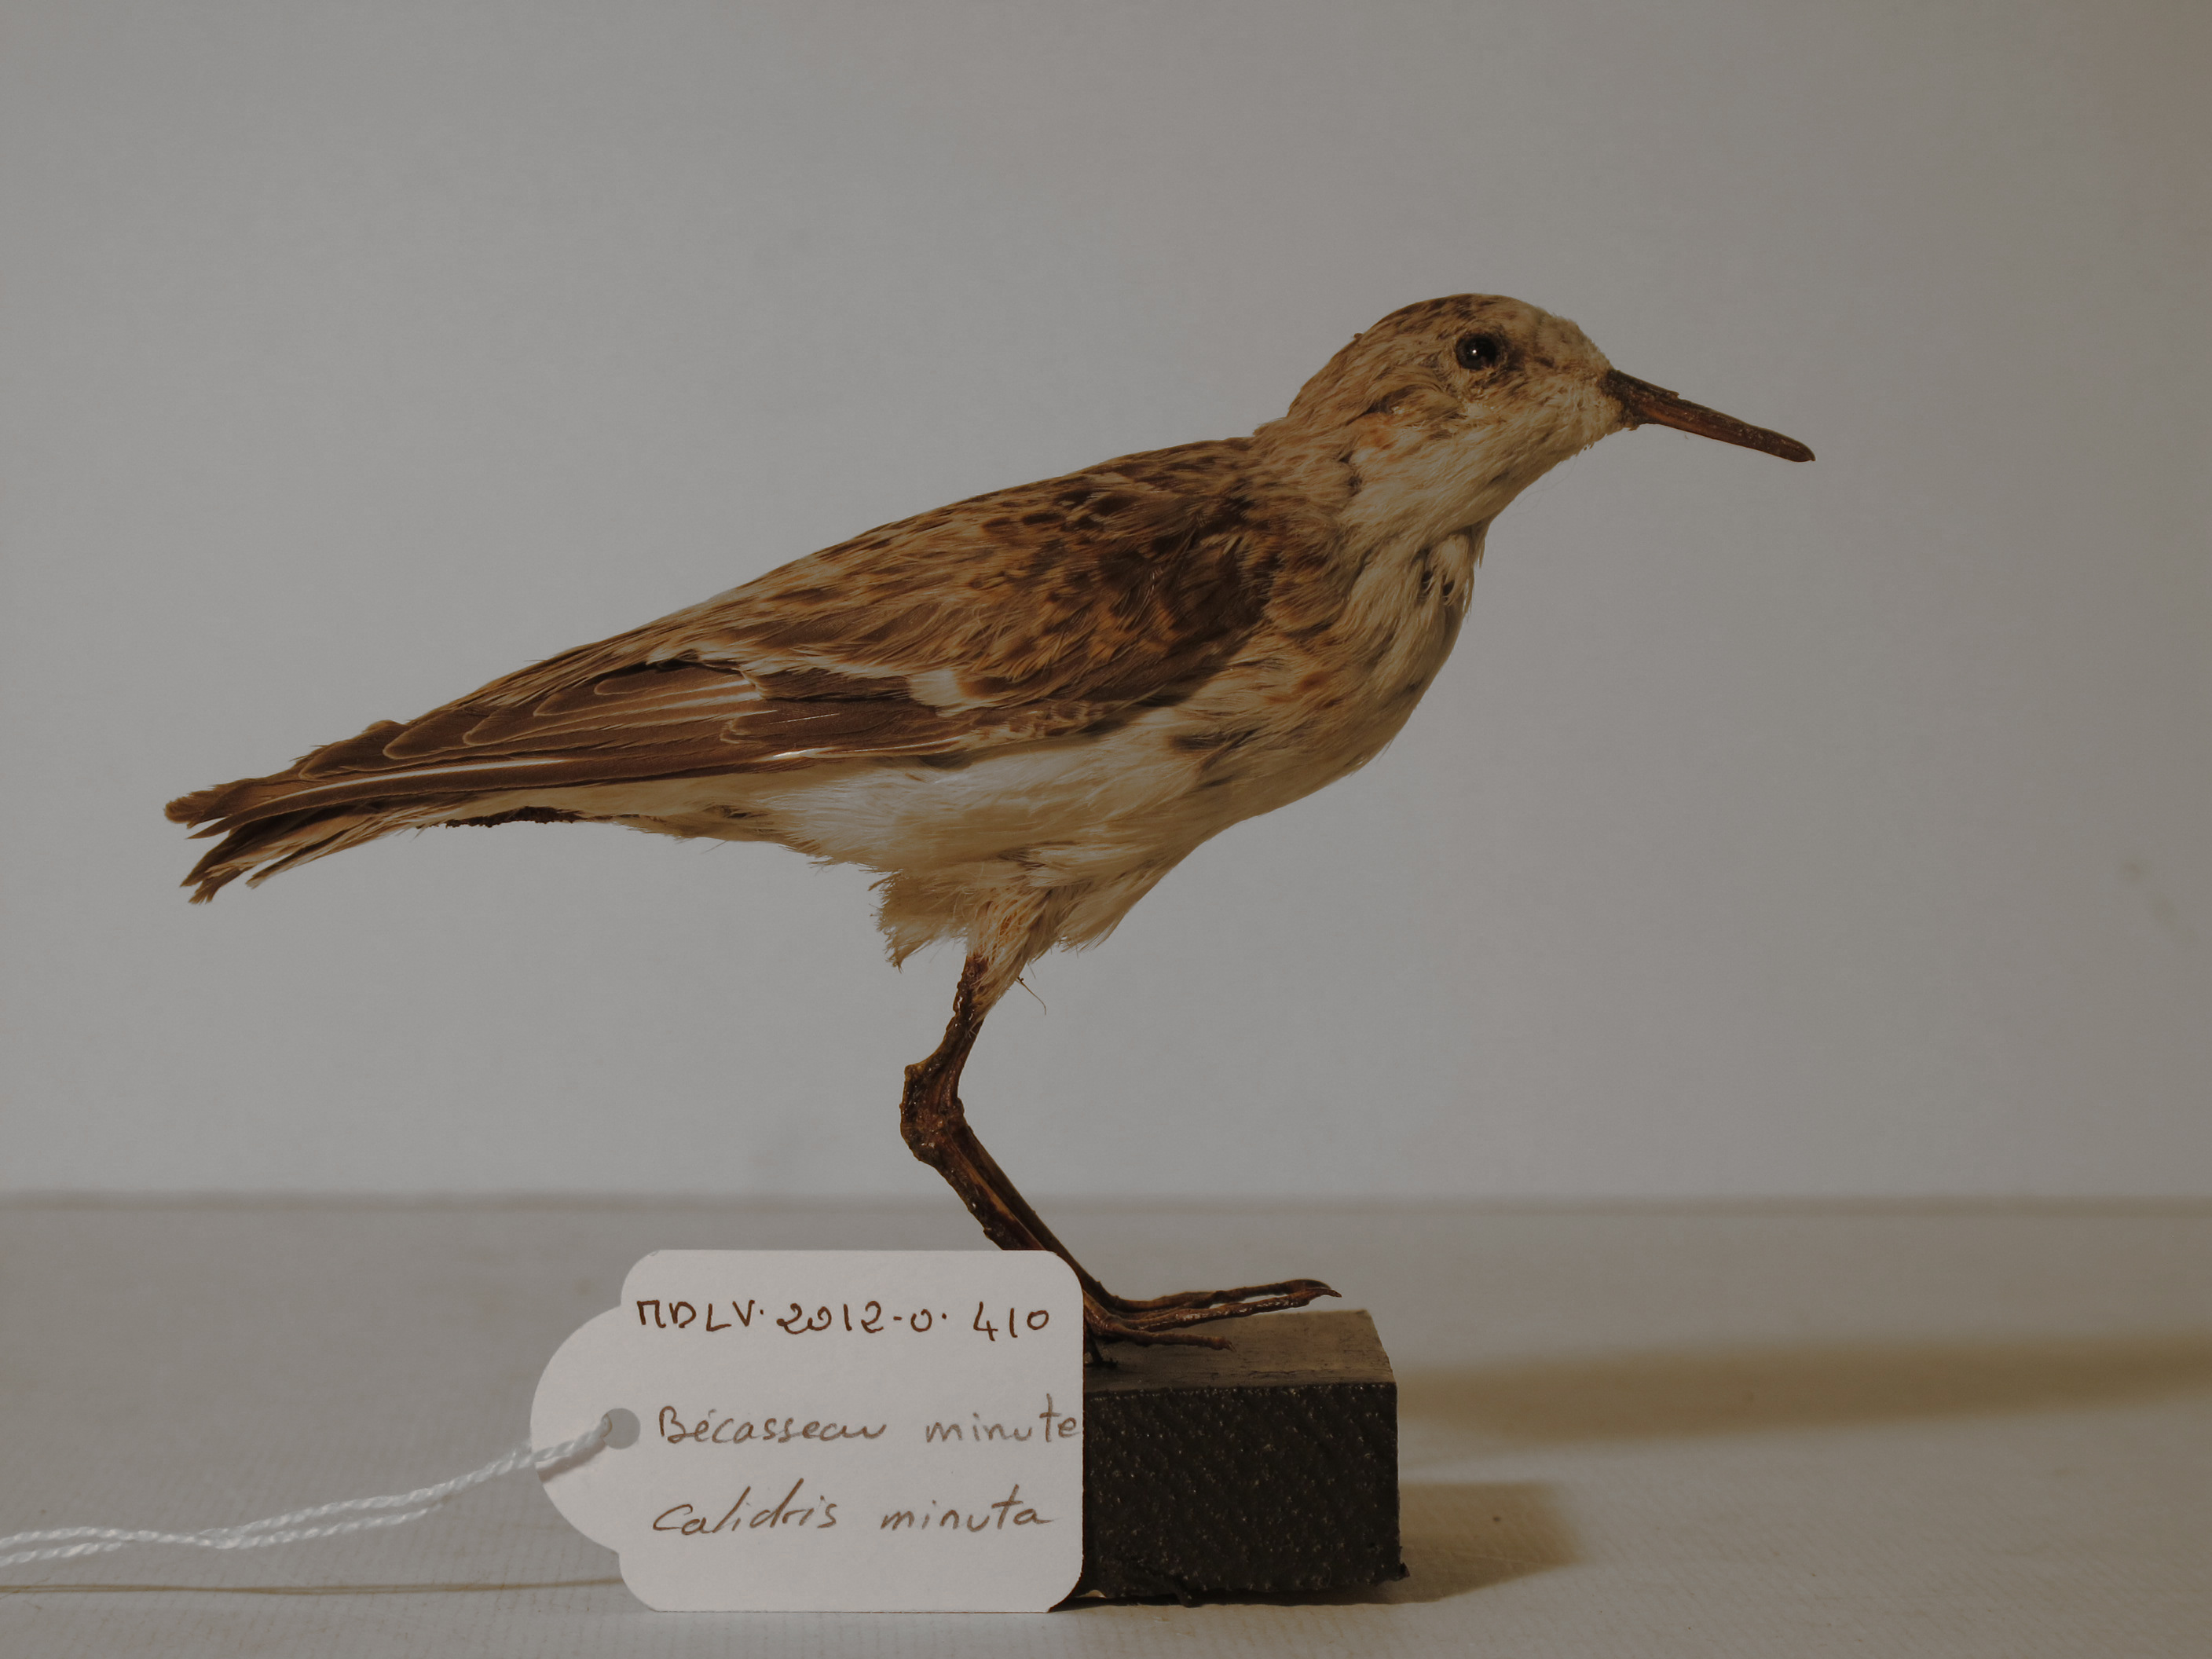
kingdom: Animalia
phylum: Chordata
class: Aves
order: Charadriiformes
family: Scolopacidae
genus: Calidris
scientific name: Calidris minuta
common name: Little Stint
